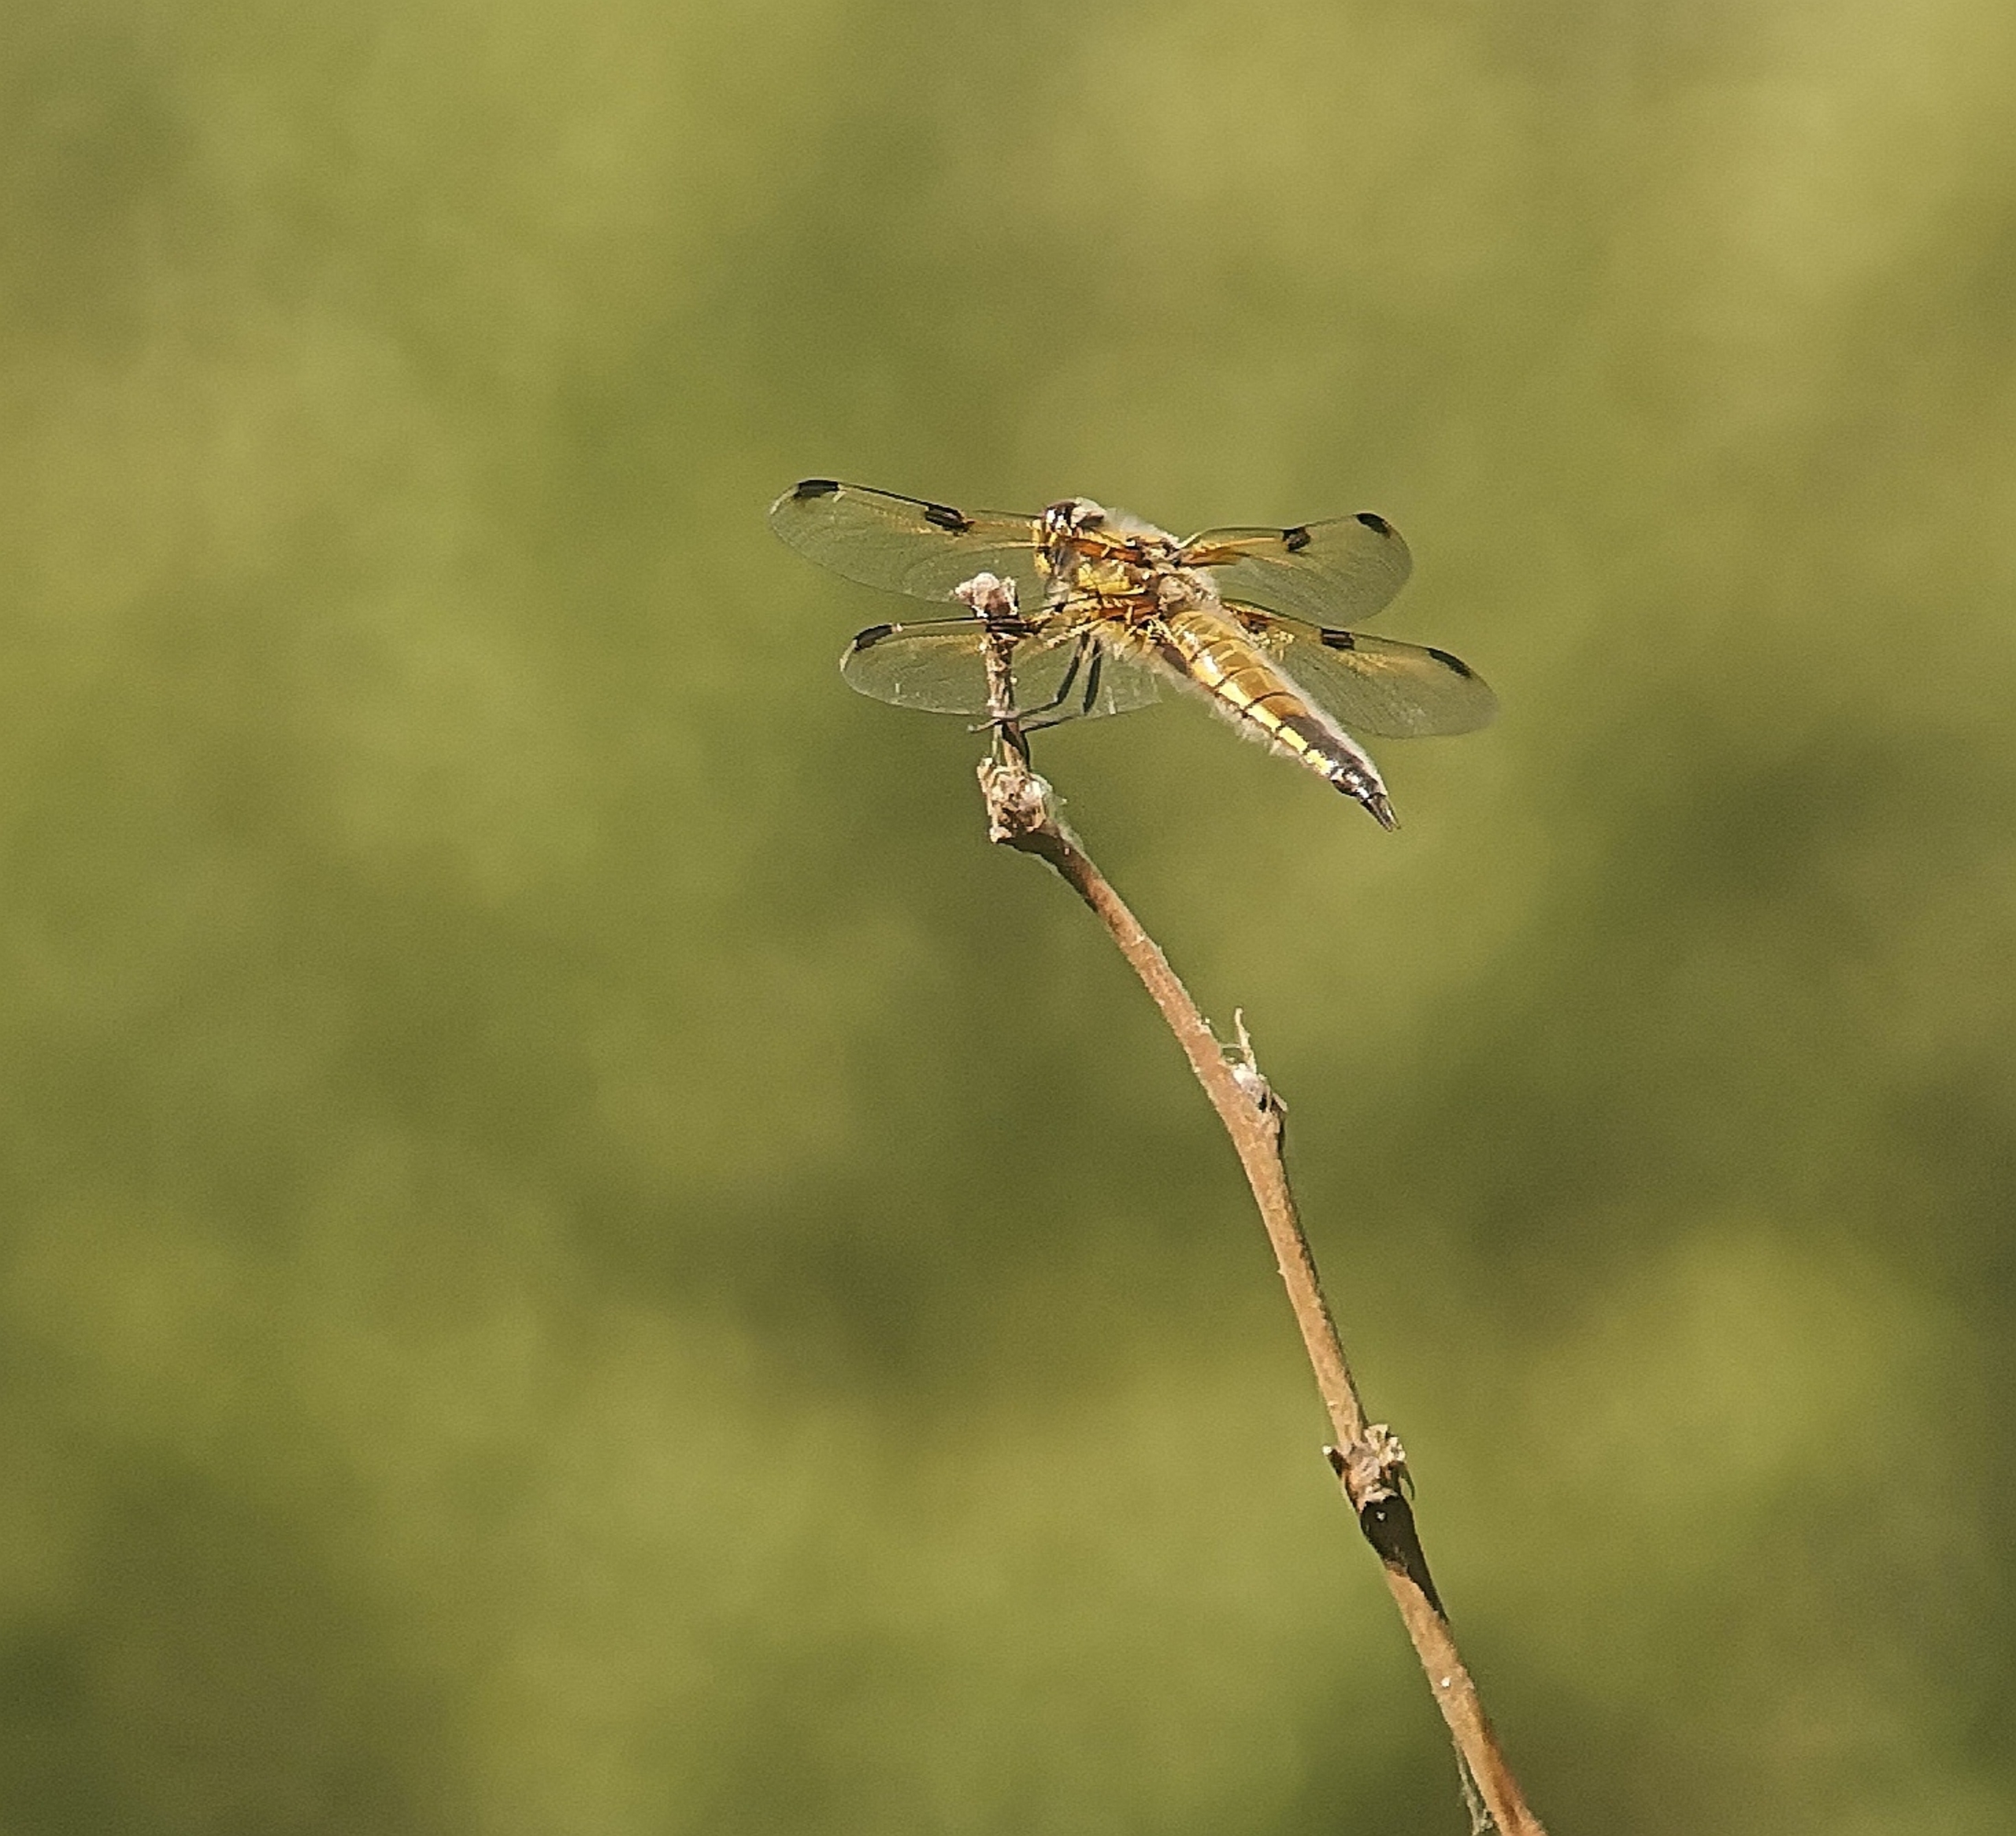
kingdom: Animalia
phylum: Arthropoda
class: Insecta
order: Odonata
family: Libellulidae
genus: Libellula
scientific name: Libellula quadrimaculata
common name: Fireplettet libel
